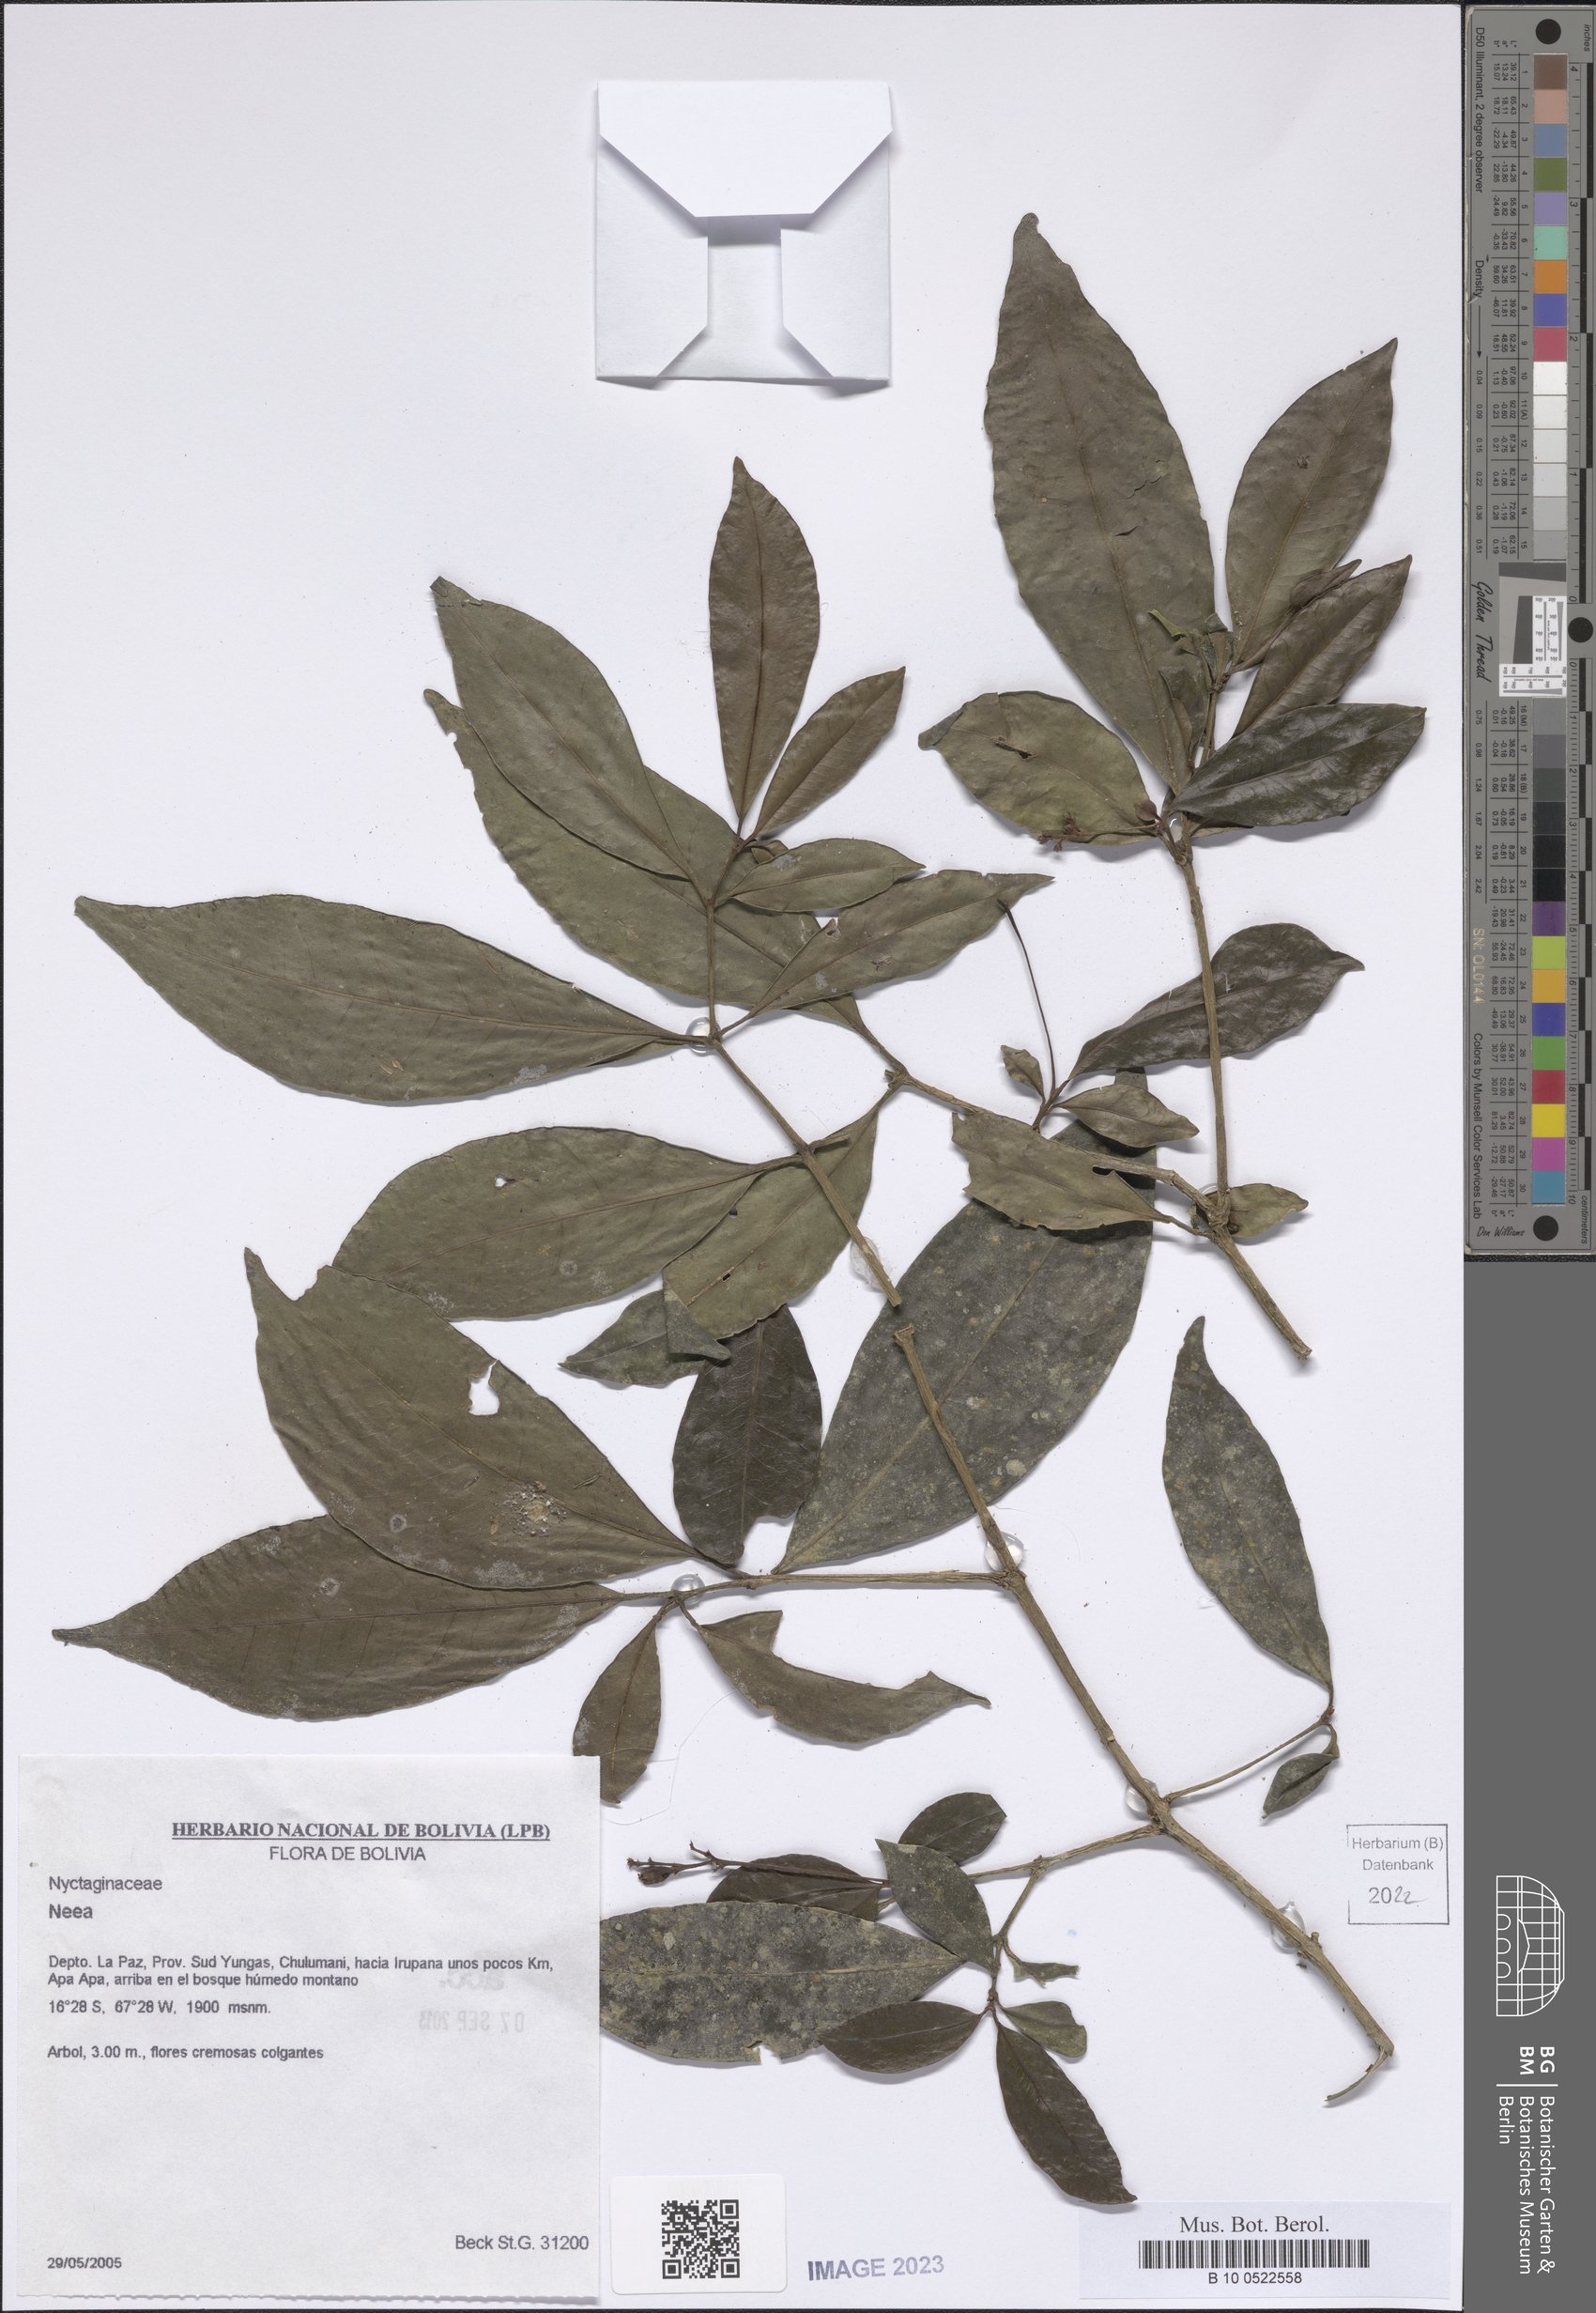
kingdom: Plantae
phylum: Tracheophyta
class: Magnoliopsida
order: Caryophyllales
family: Nyctaginaceae
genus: Neea
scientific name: Neea
